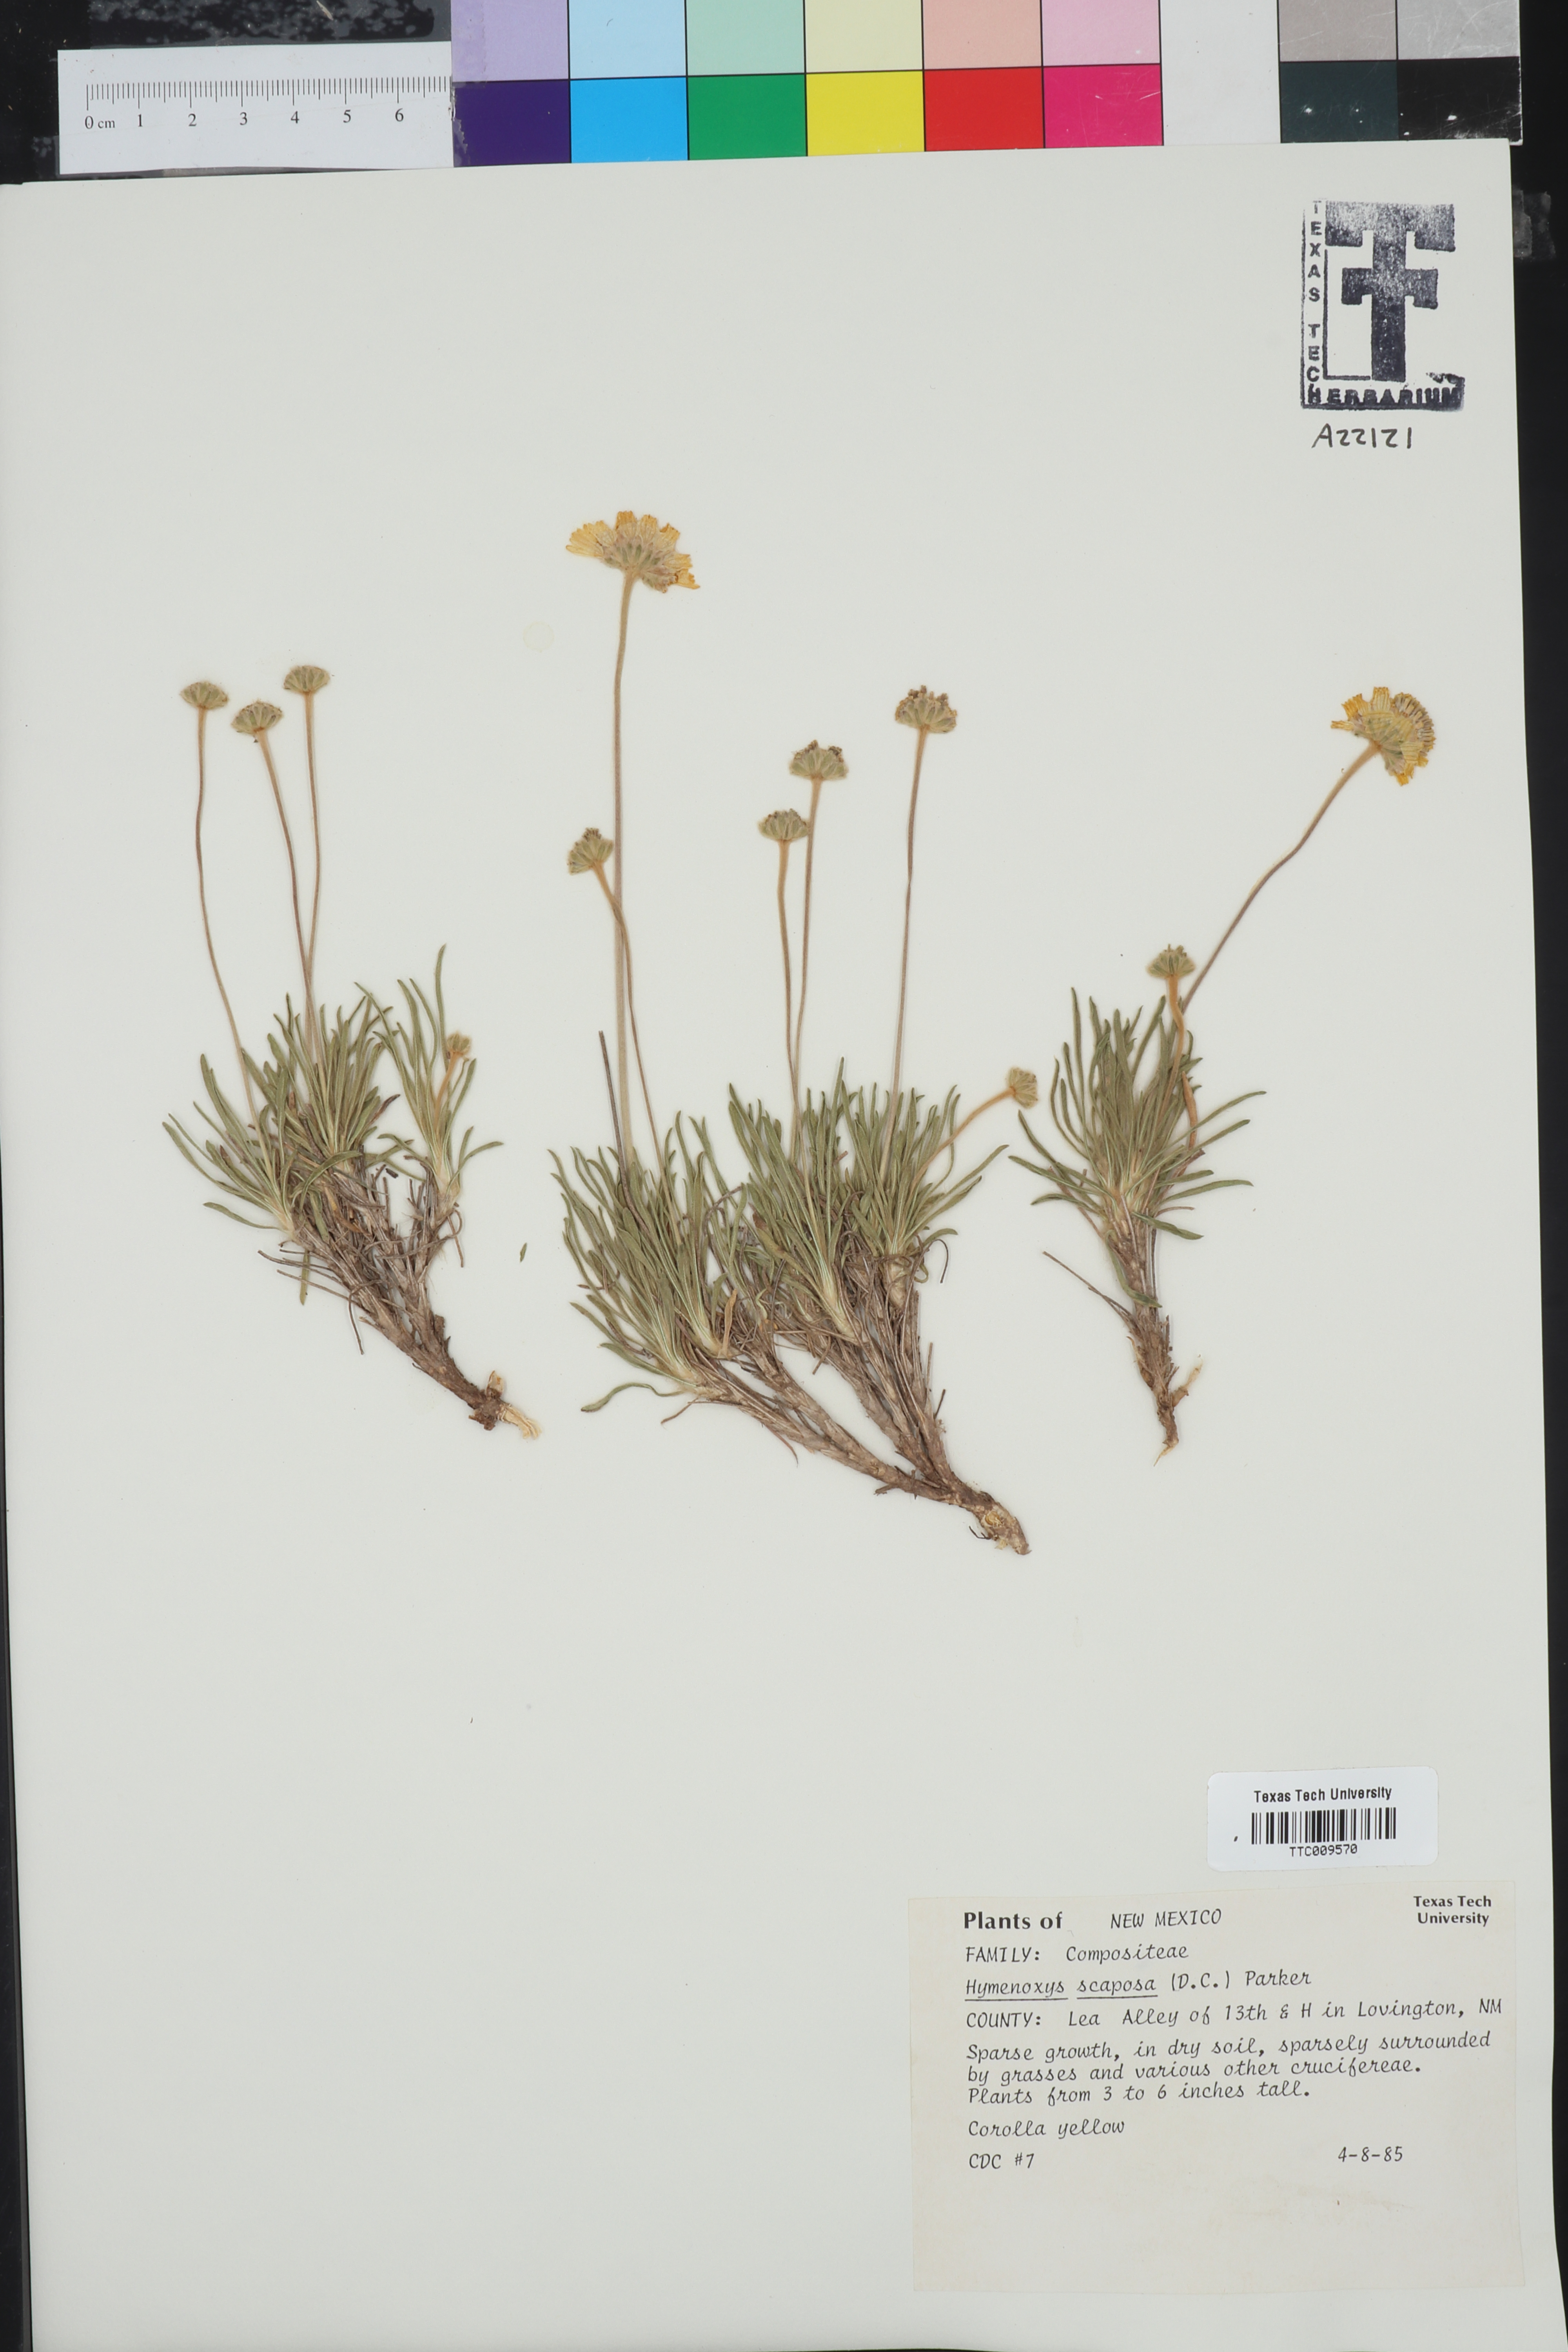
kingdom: Plantae
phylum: Tracheophyta
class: Magnoliopsida
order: Asterales
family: Asteraceae
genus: Tetraneuris
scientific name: Tetraneuris scaposa
